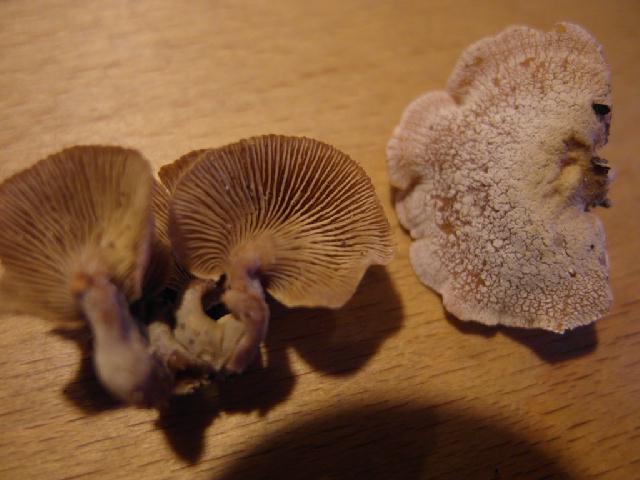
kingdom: Fungi
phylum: Basidiomycota
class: Agaricomycetes
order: Agaricales
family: Mycenaceae
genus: Panellus
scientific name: Panellus stipticus
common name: kliddet epaulethat
